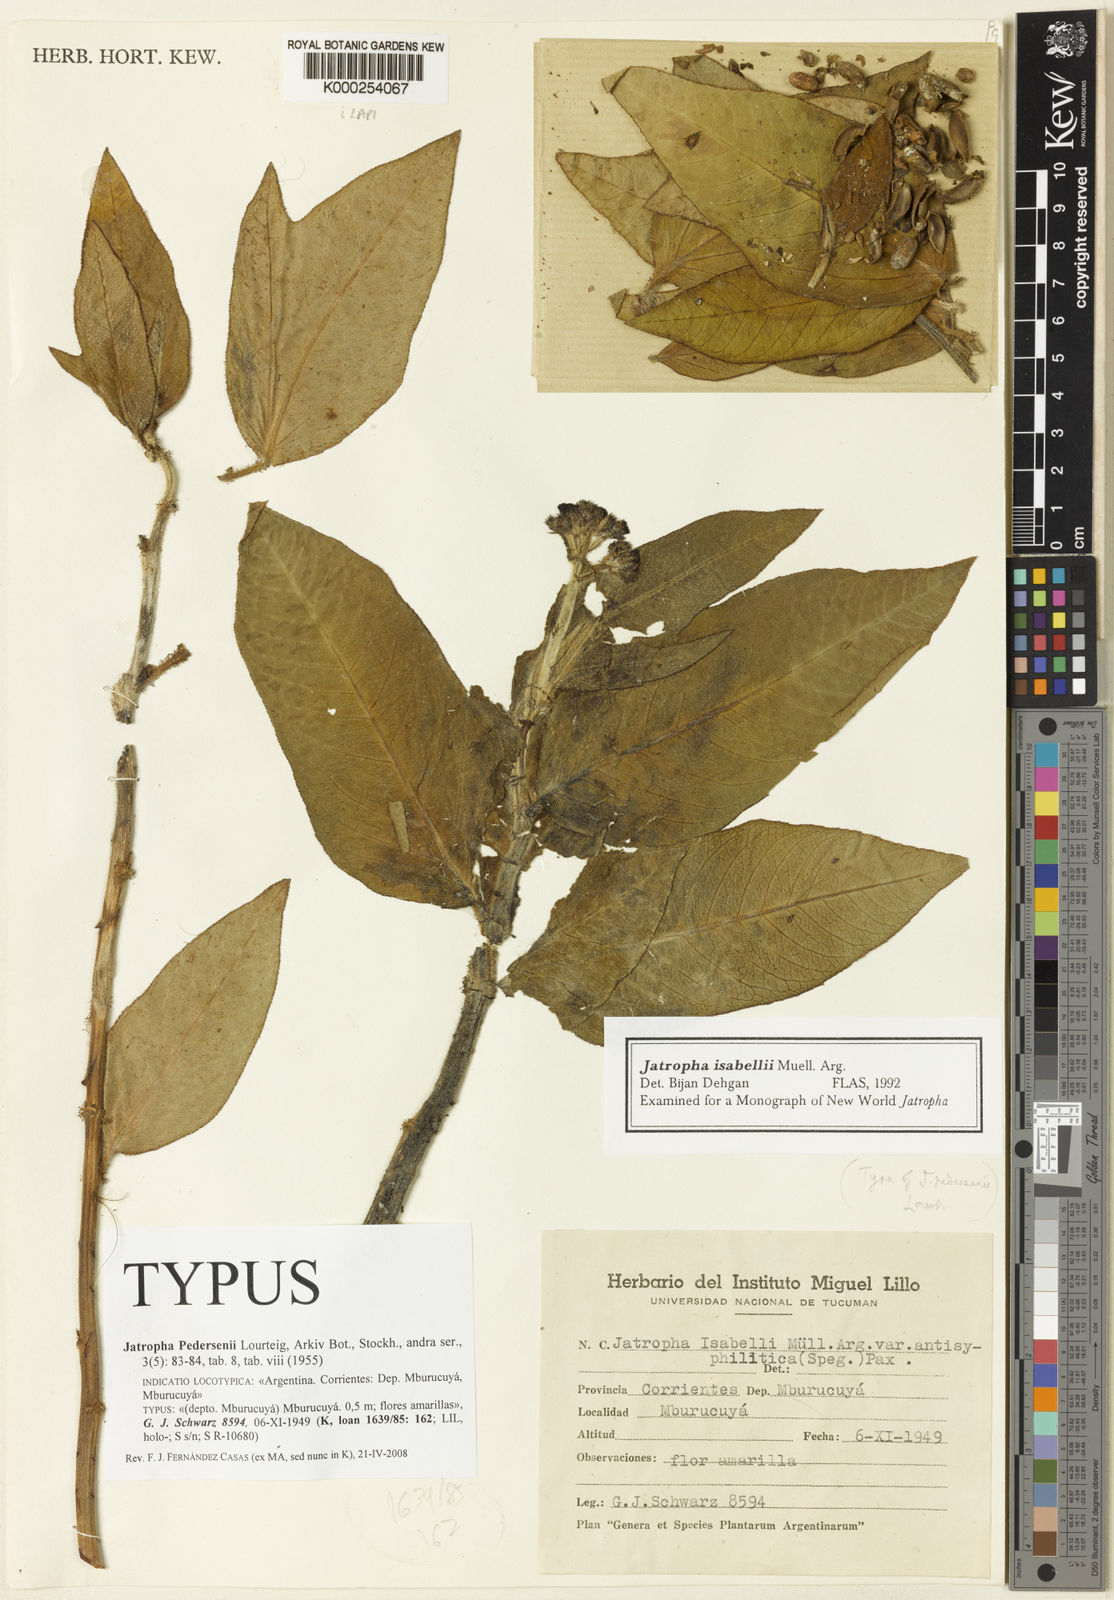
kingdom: Plantae
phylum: Tracheophyta
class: Magnoliopsida
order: Malpighiales
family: Euphorbiaceae
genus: Jatropha
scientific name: Jatropha pedersenii
